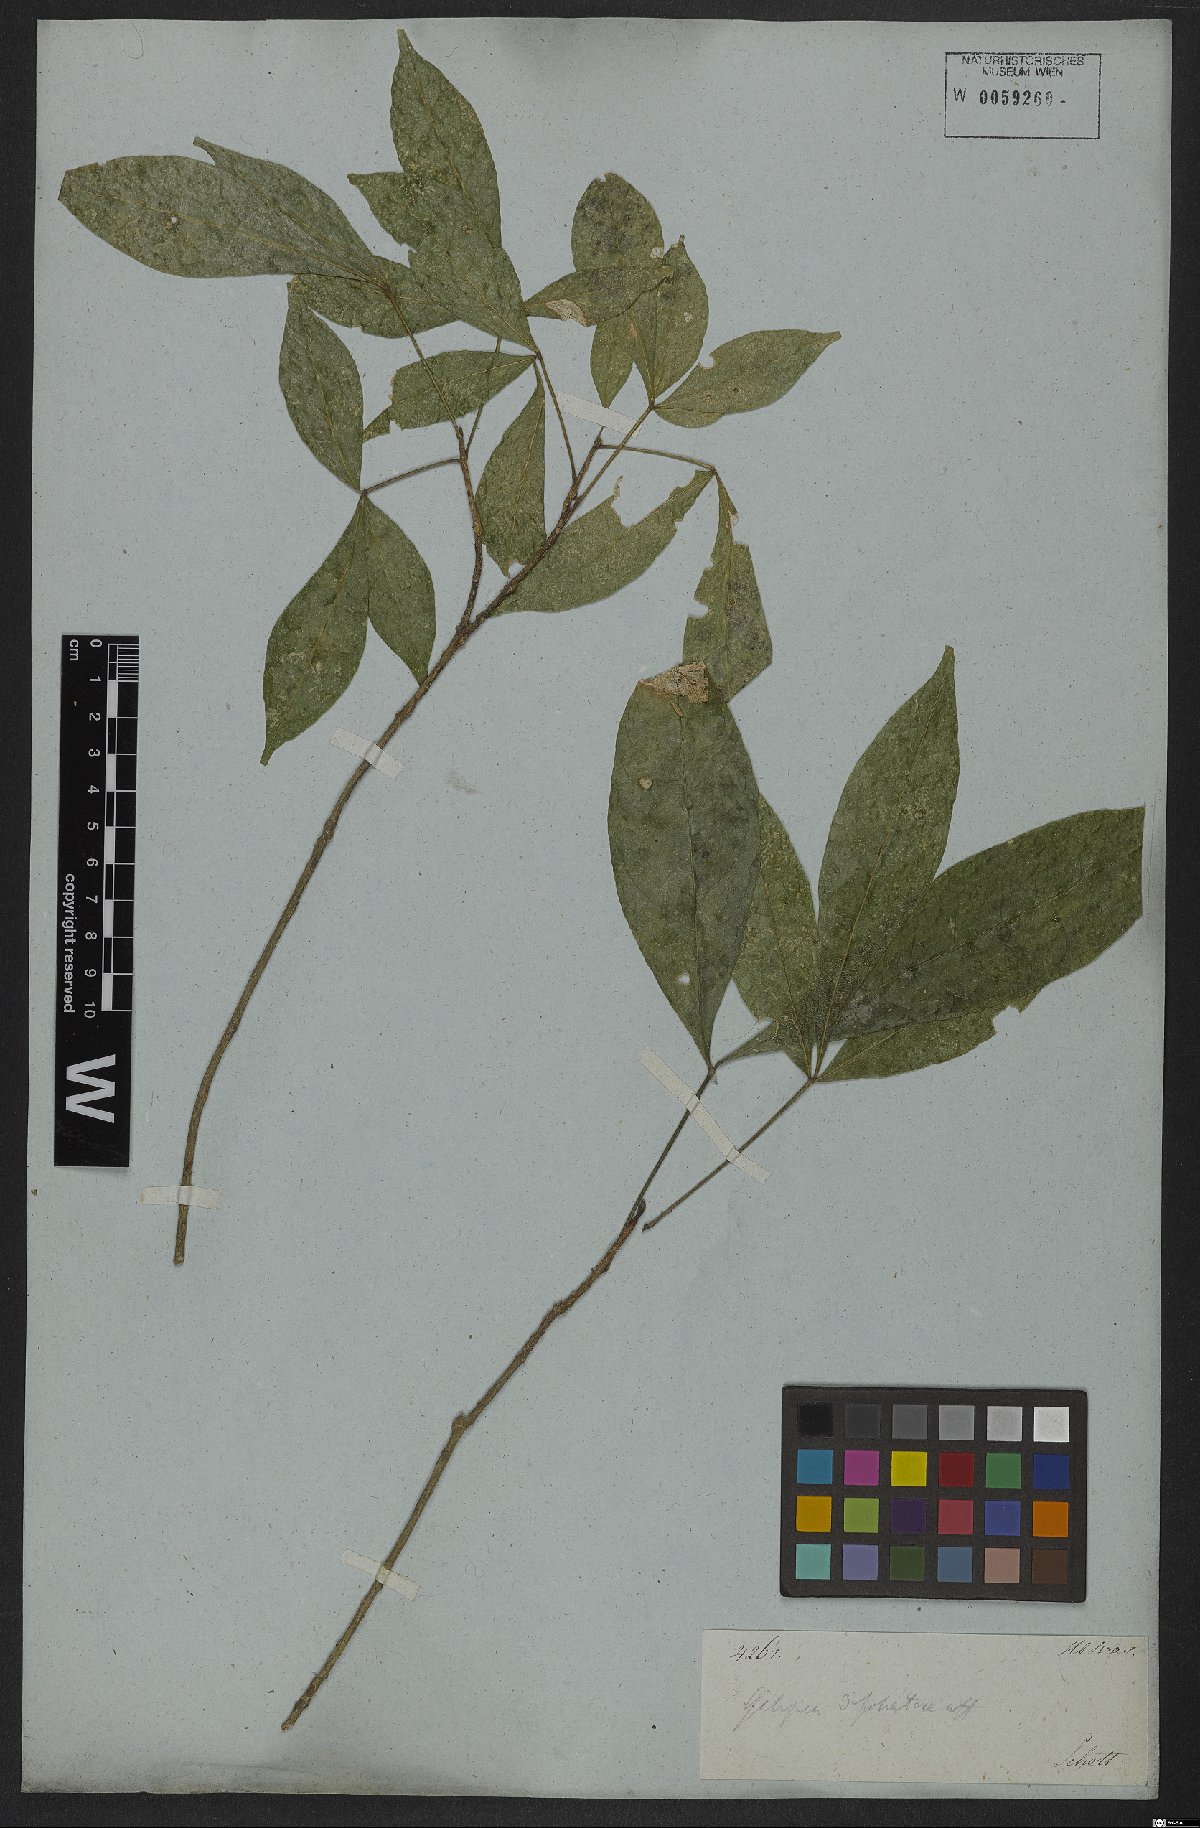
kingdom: Plantae
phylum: Tracheophyta
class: Magnoliopsida
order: Sapindales
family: Rutaceae
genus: Galipea
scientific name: Galipea jasminiflora
